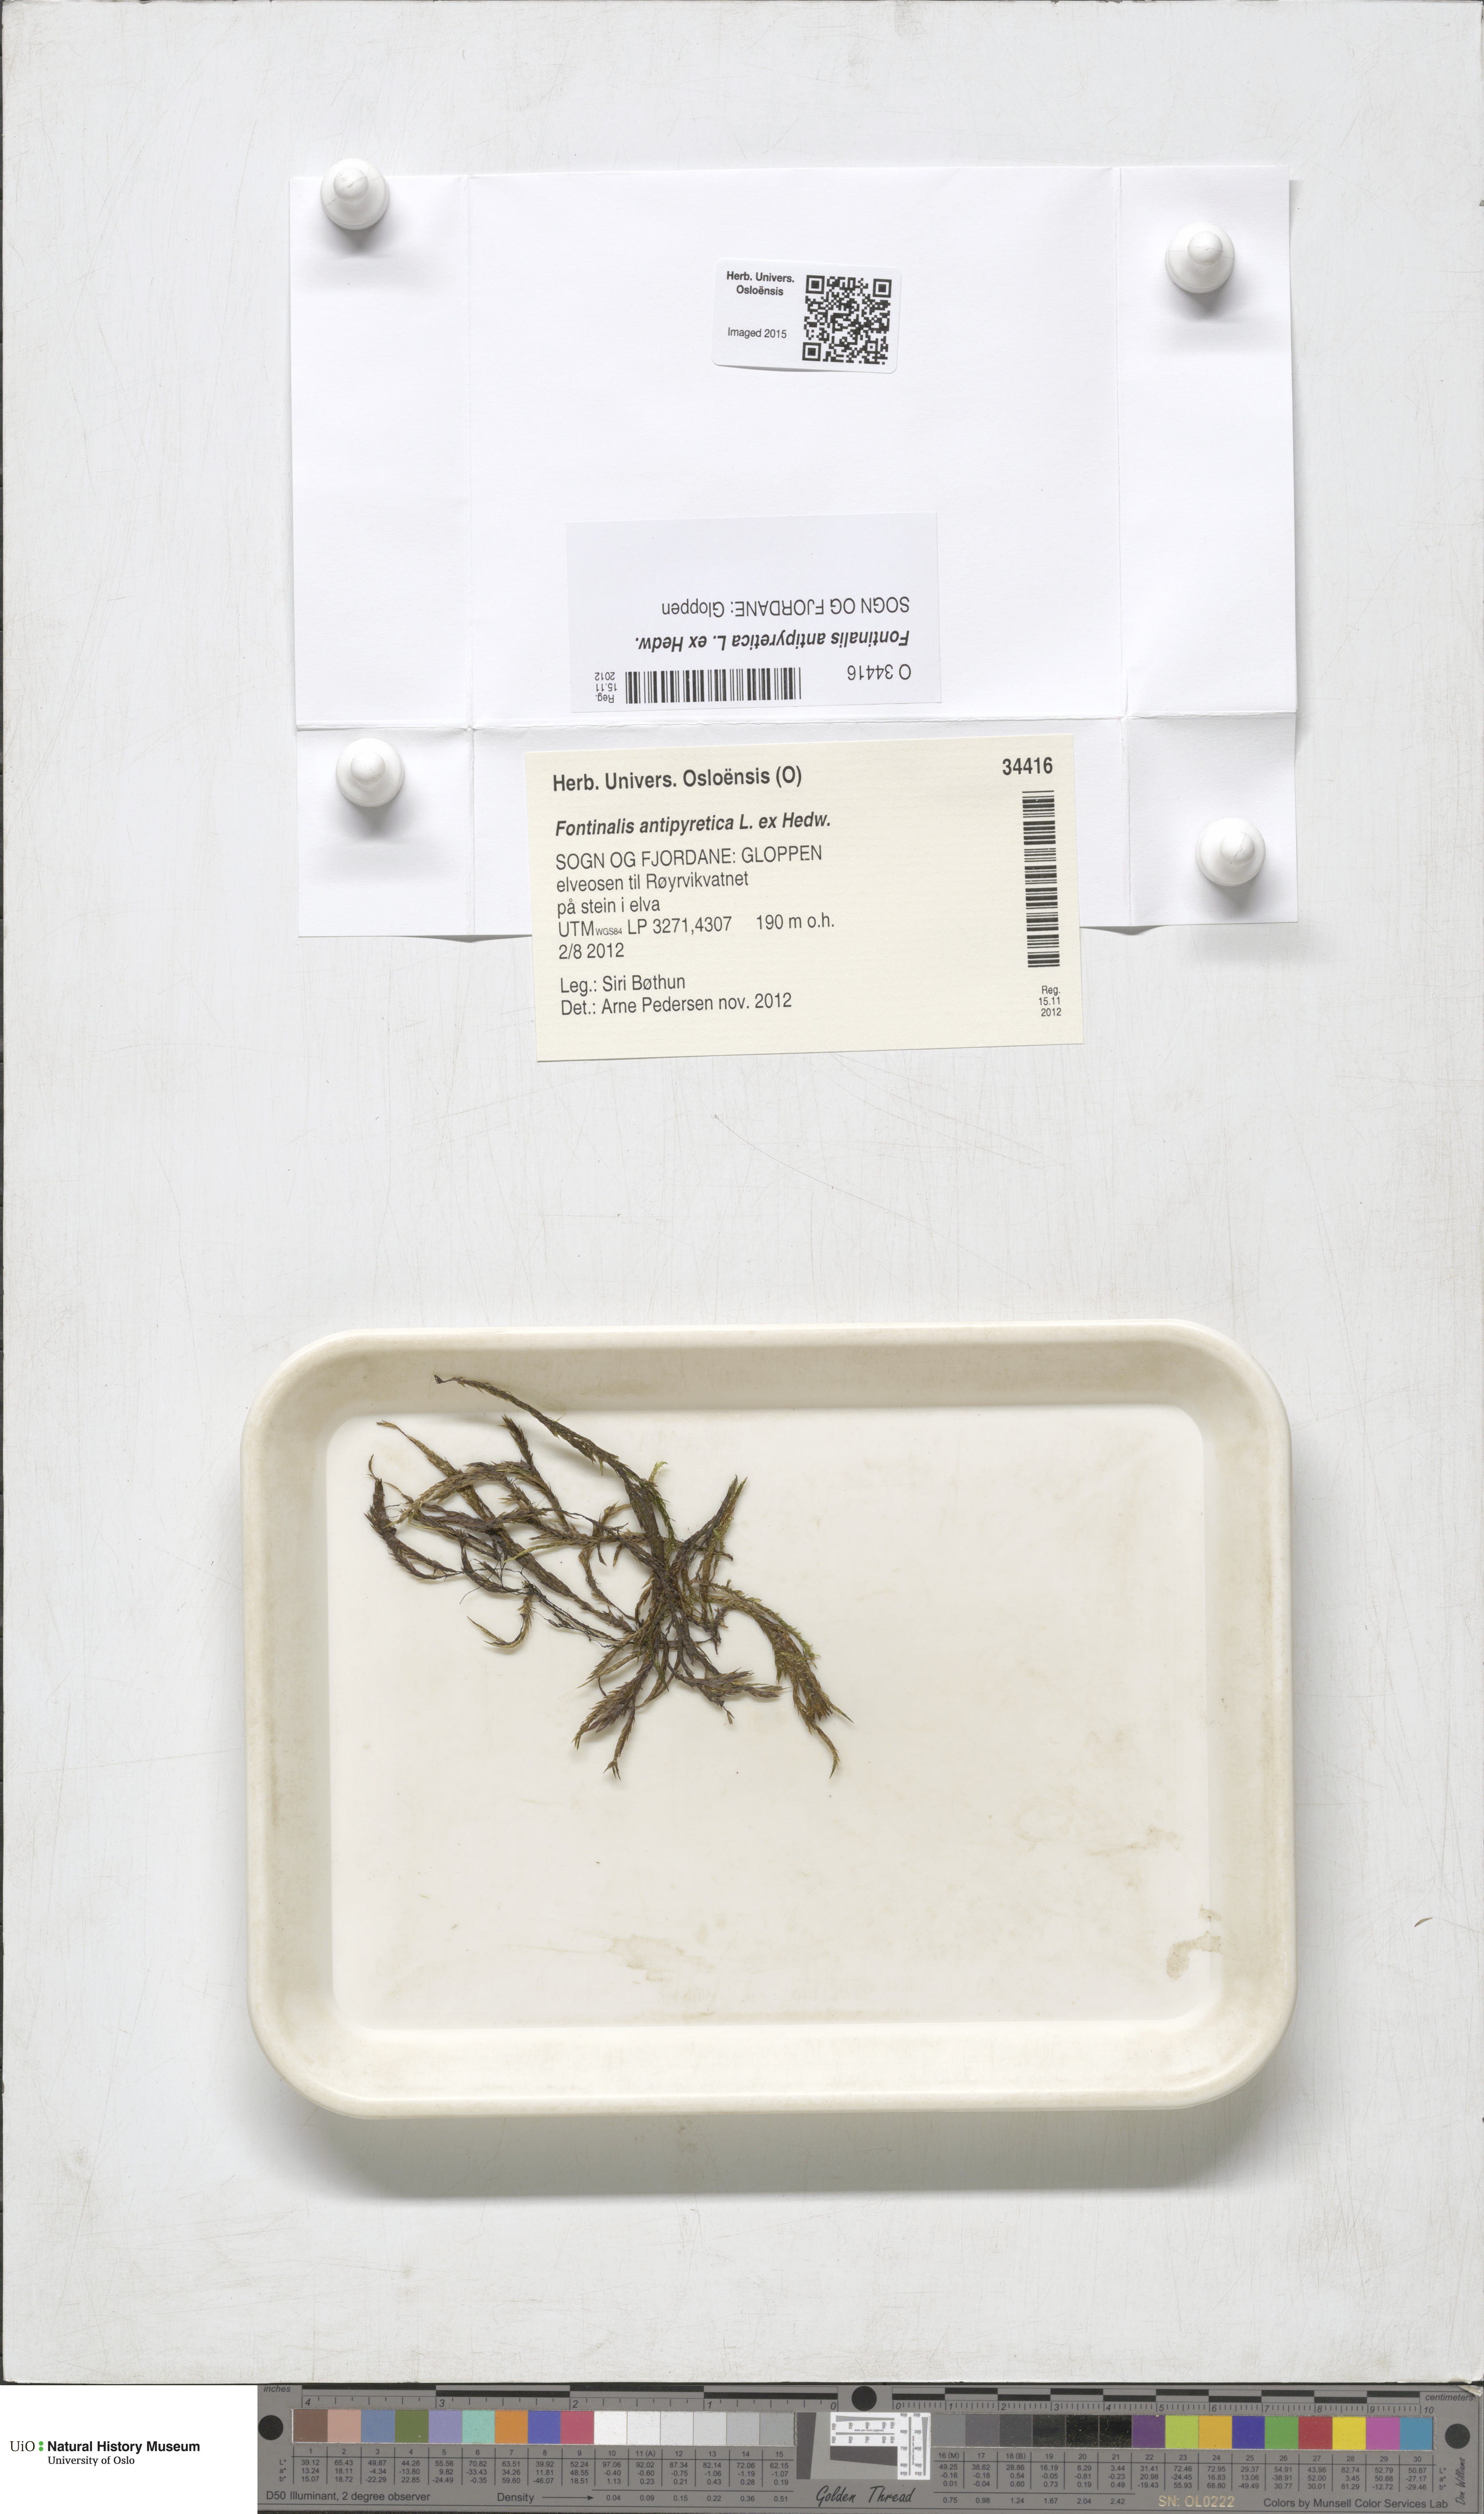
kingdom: Plantae
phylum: Bryophyta
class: Bryopsida
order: Hypnales
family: Fontinalaceae
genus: Fontinalis
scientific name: Fontinalis antipyretica
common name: Greater water-moss
